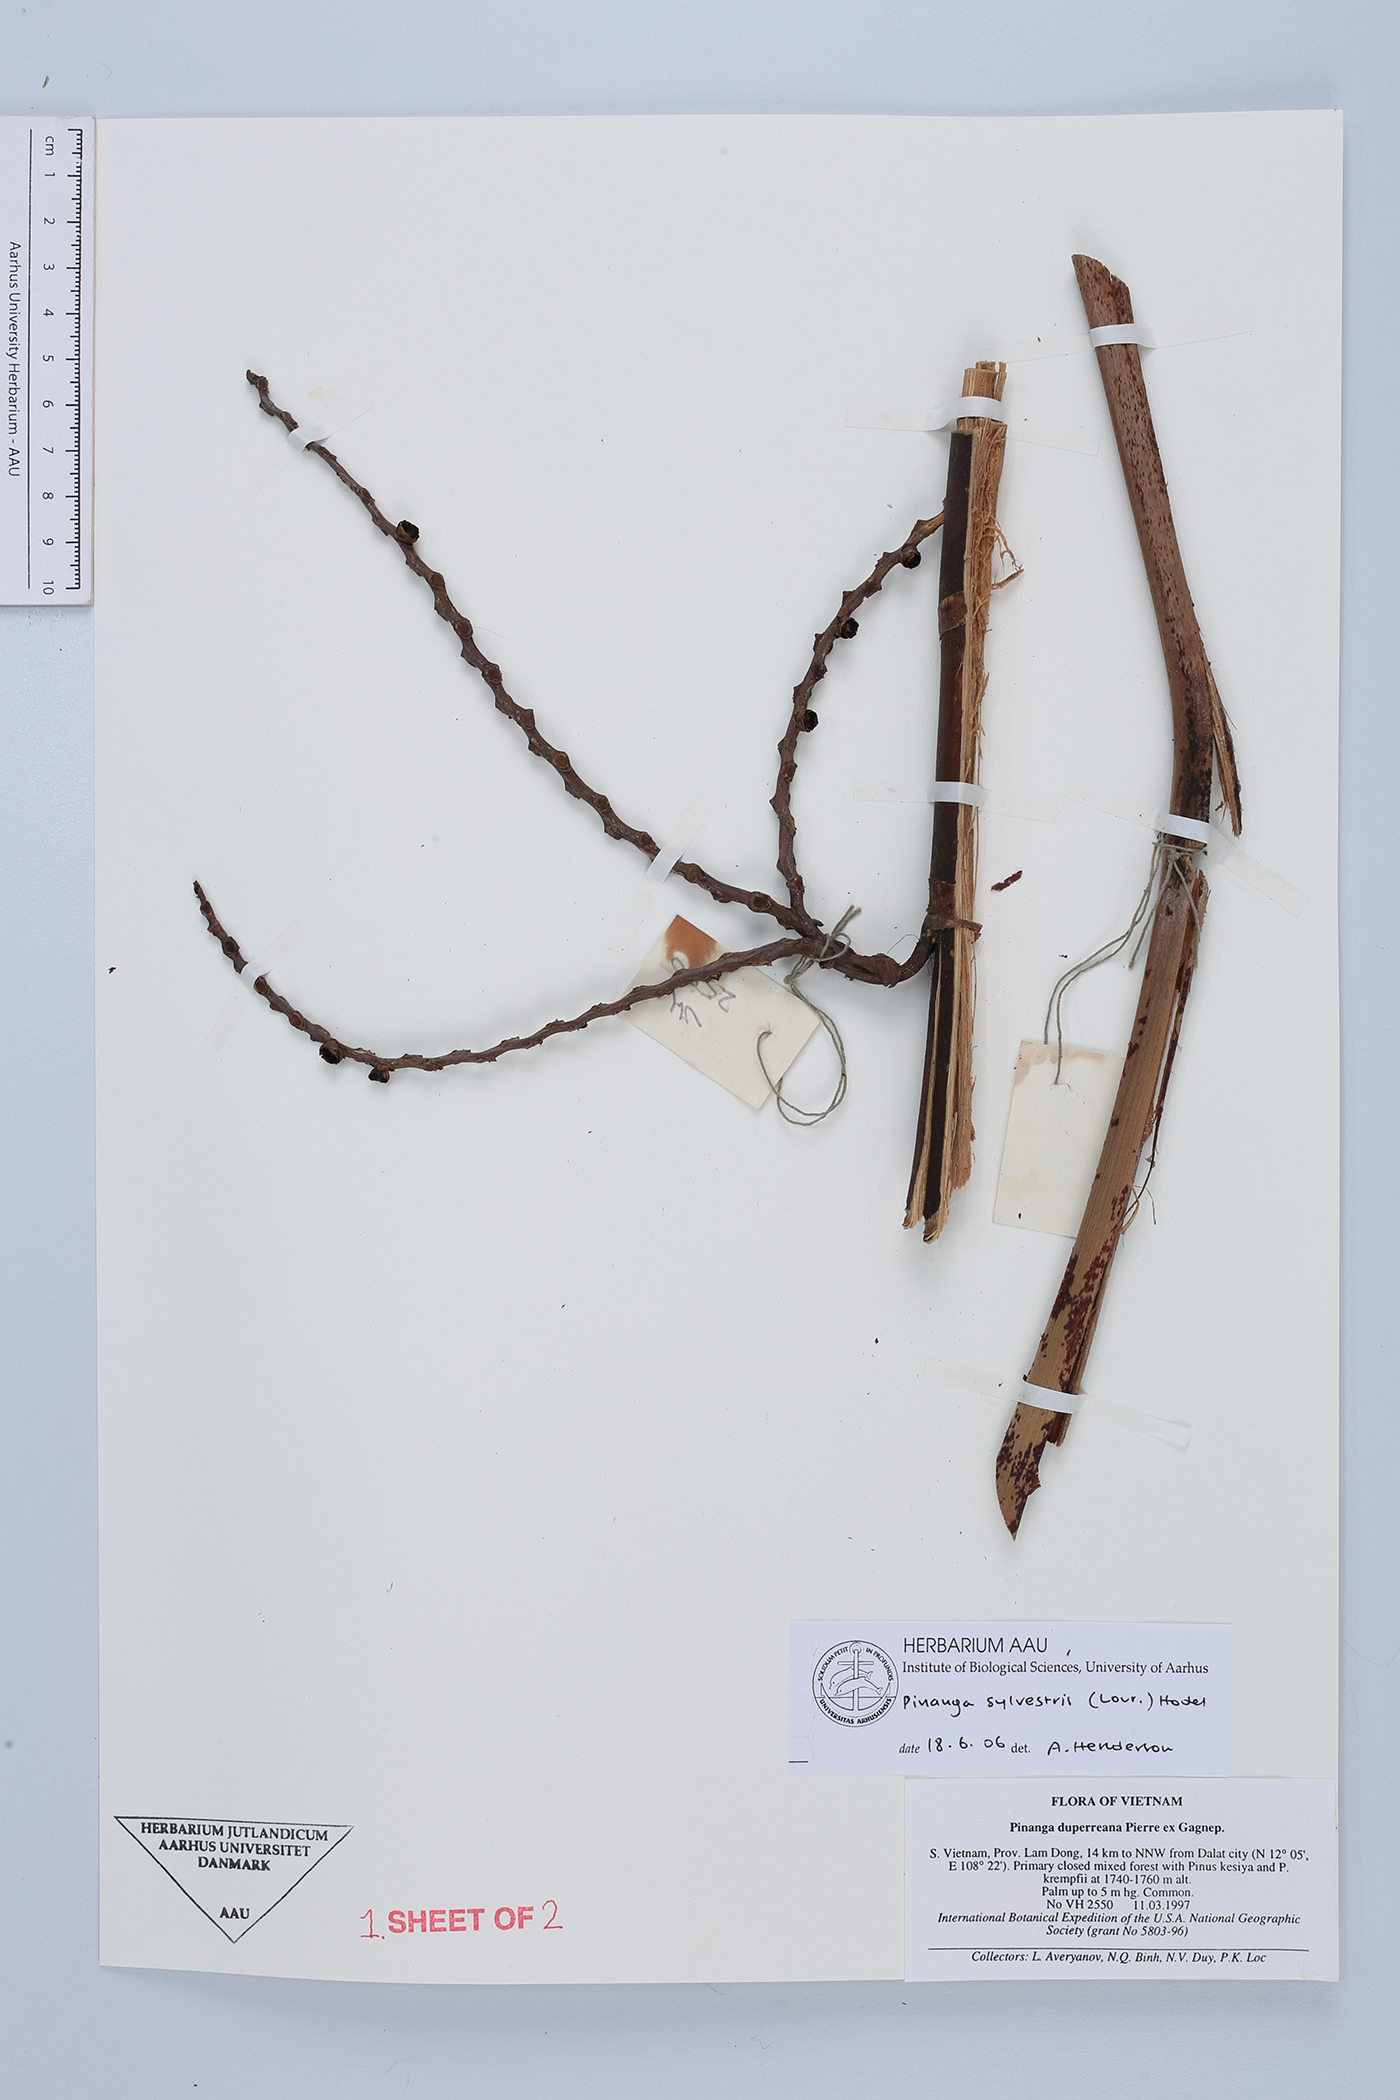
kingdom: Plantae
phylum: Tracheophyta
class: Liliopsida
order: Arecales
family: Arecaceae
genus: Pinanga
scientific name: Pinanga sylvestris
